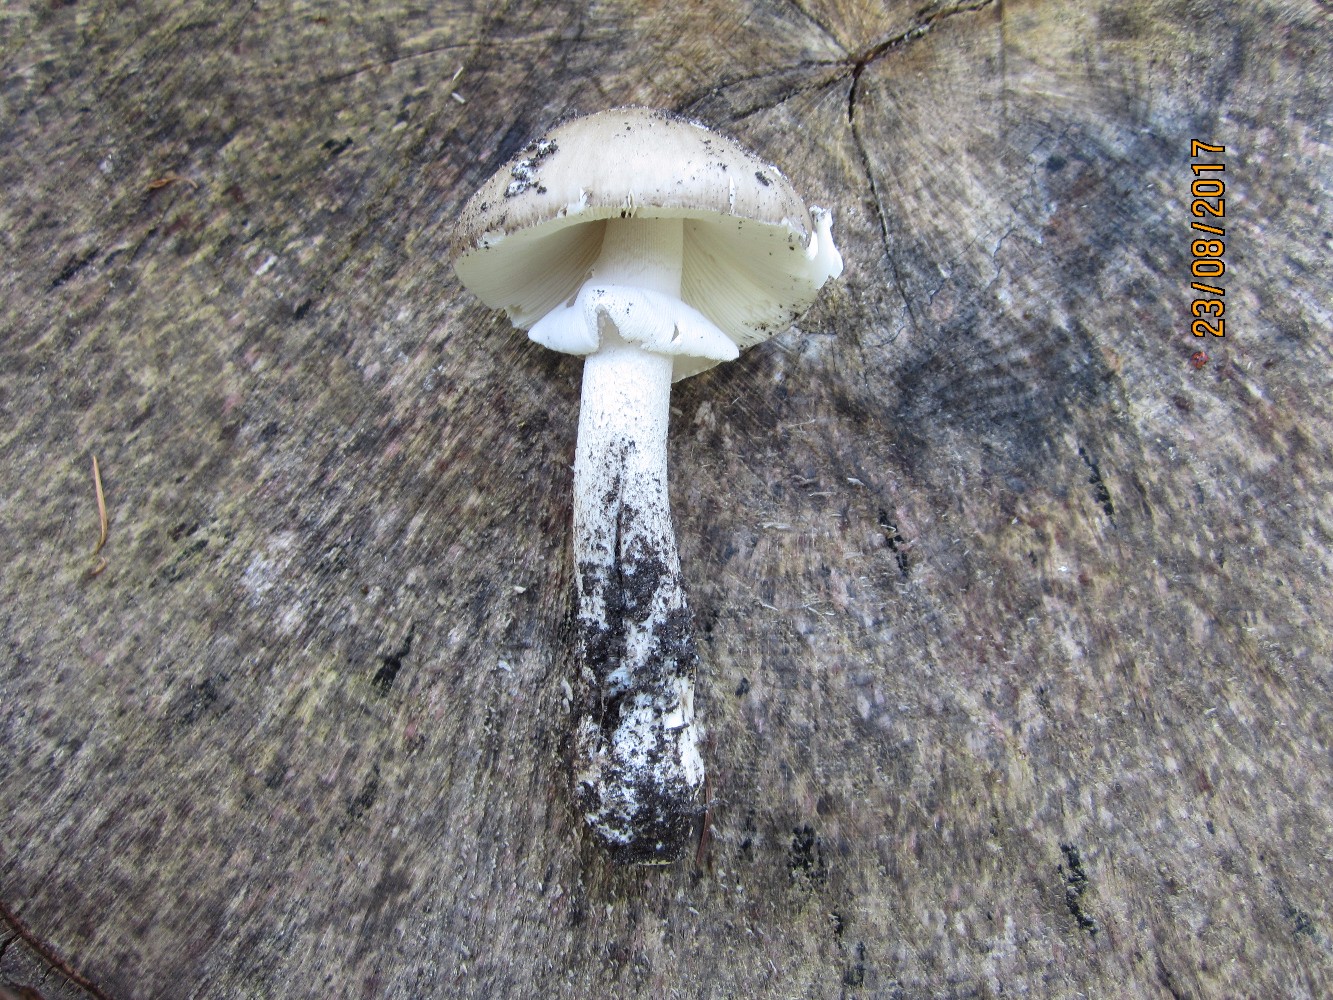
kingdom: Fungi
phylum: Basidiomycota
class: Agaricomycetes
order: Agaricales
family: Amanitaceae
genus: Amanita
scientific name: Amanita
